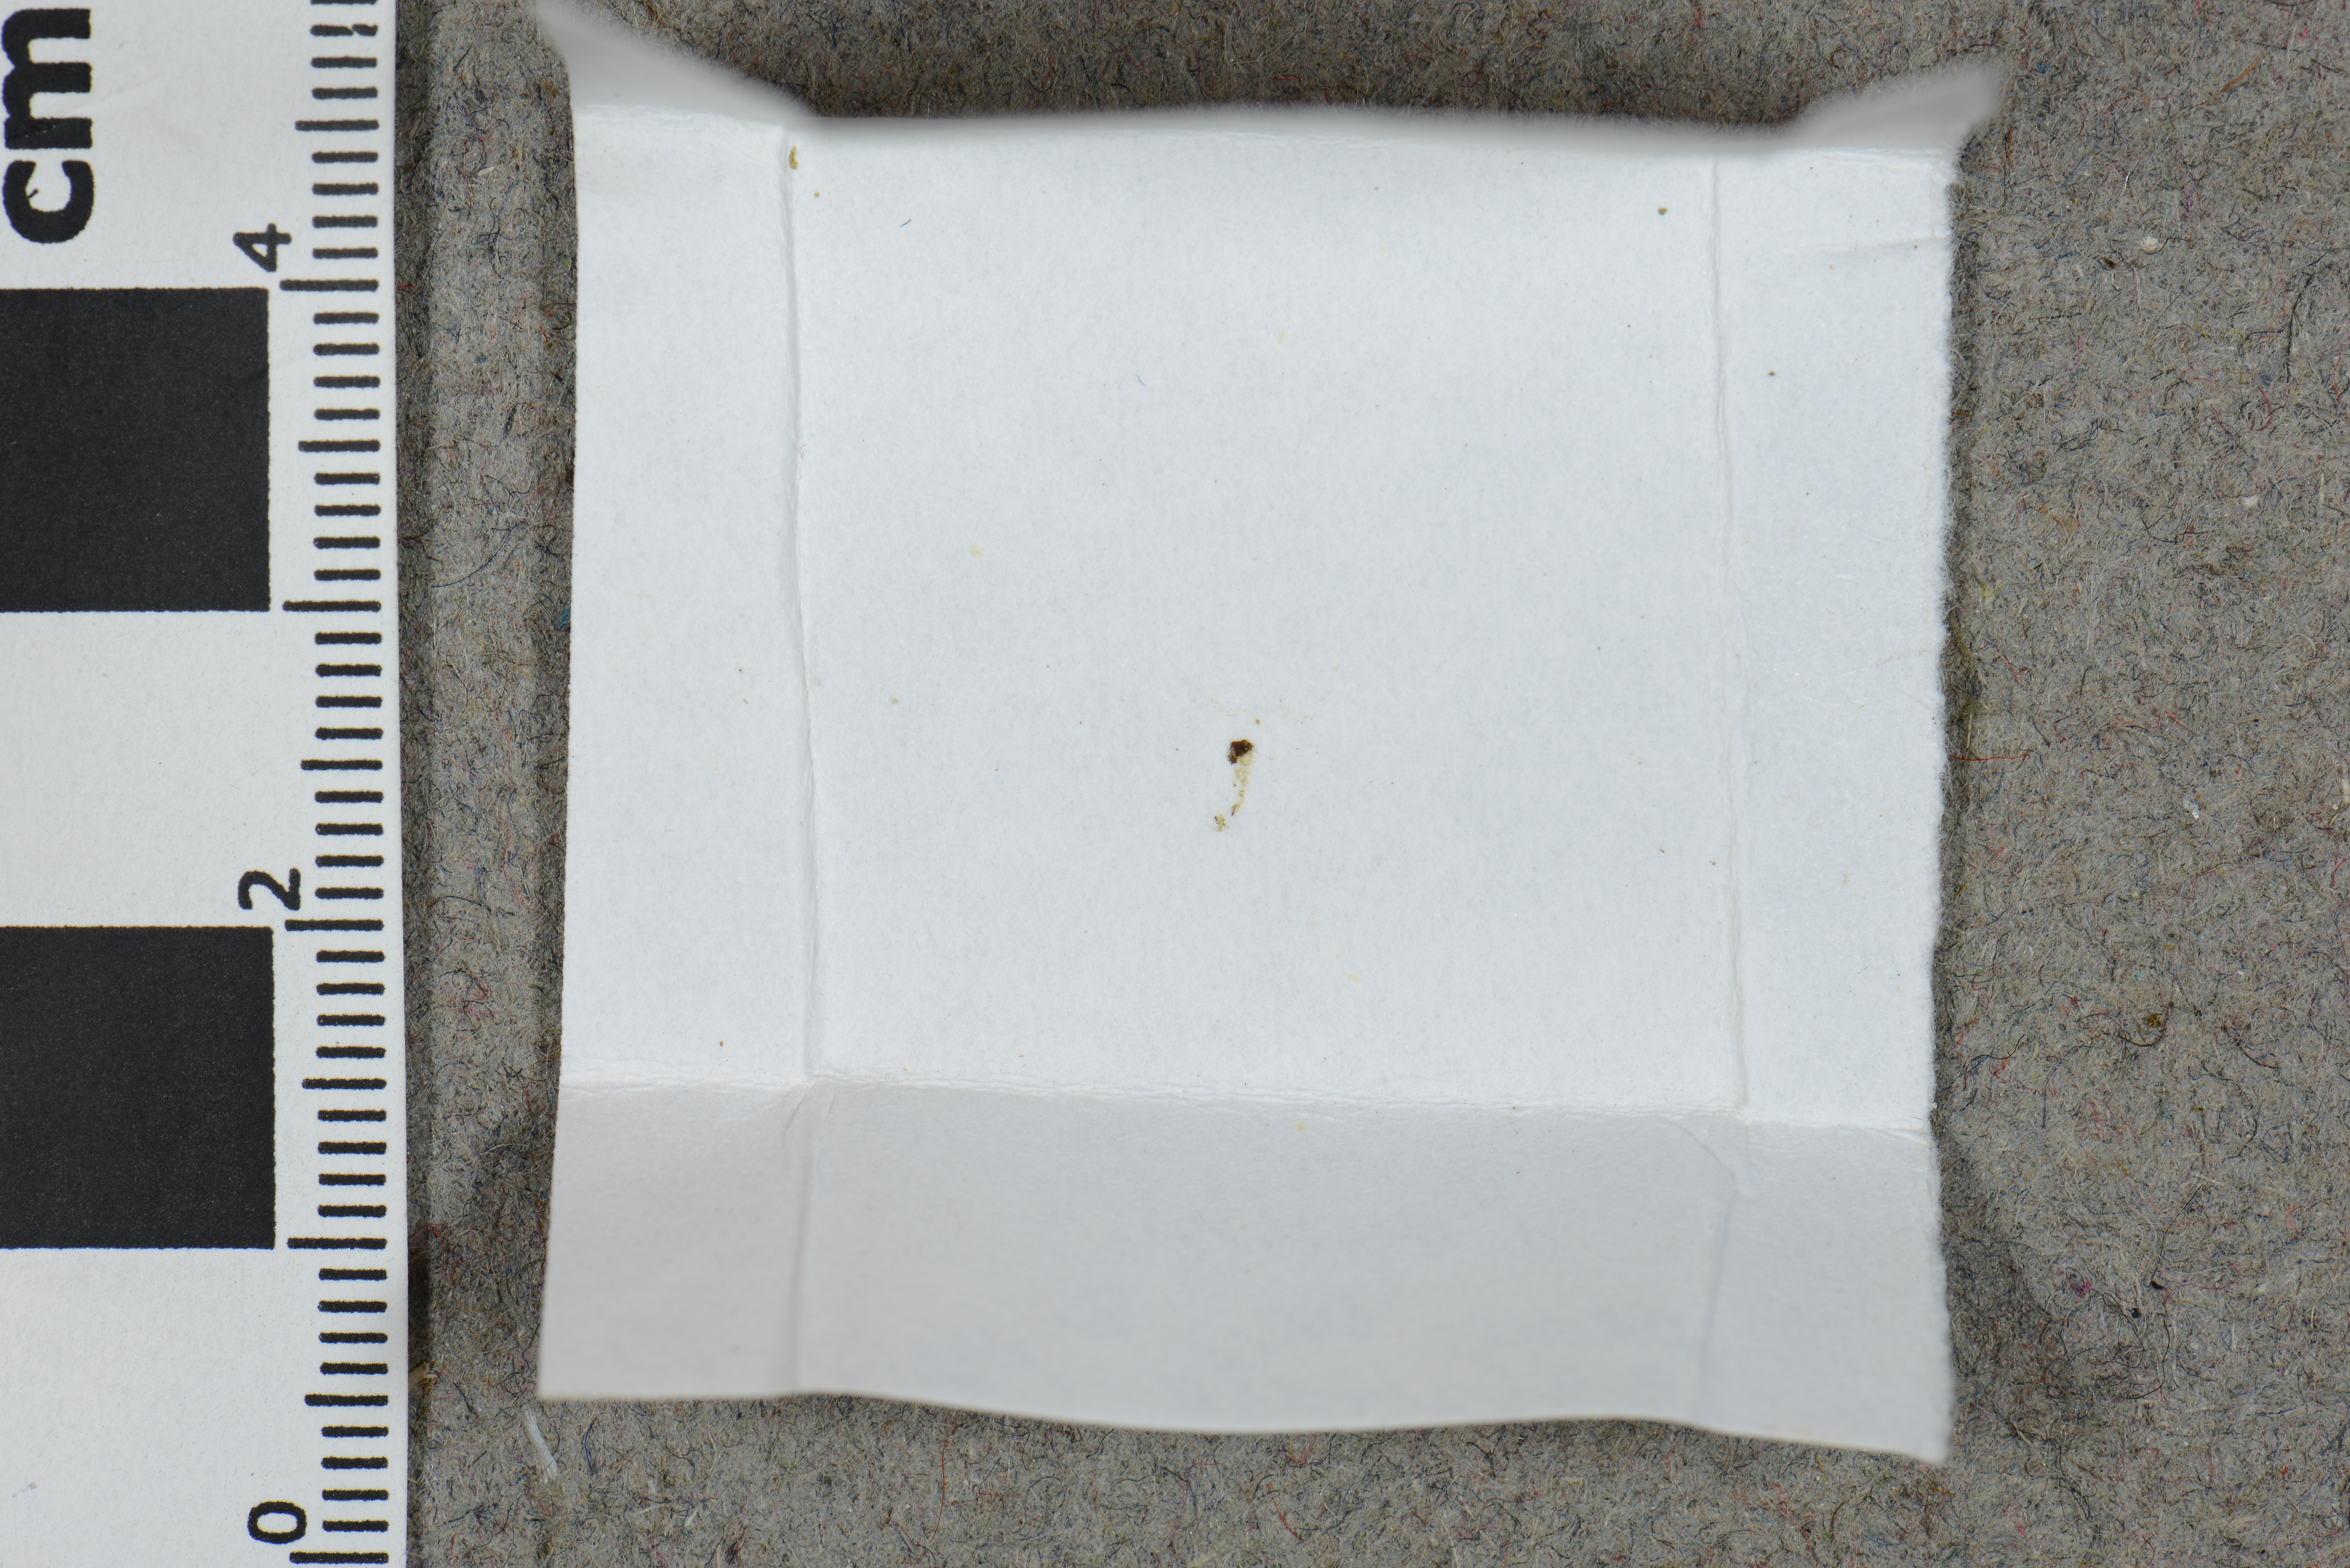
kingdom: Fungi
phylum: Ascomycota
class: Pezizomycetes
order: Pezizales
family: Pseudombrophilaceae
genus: Pseudombrophila
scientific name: Pseudombrophila minuta
